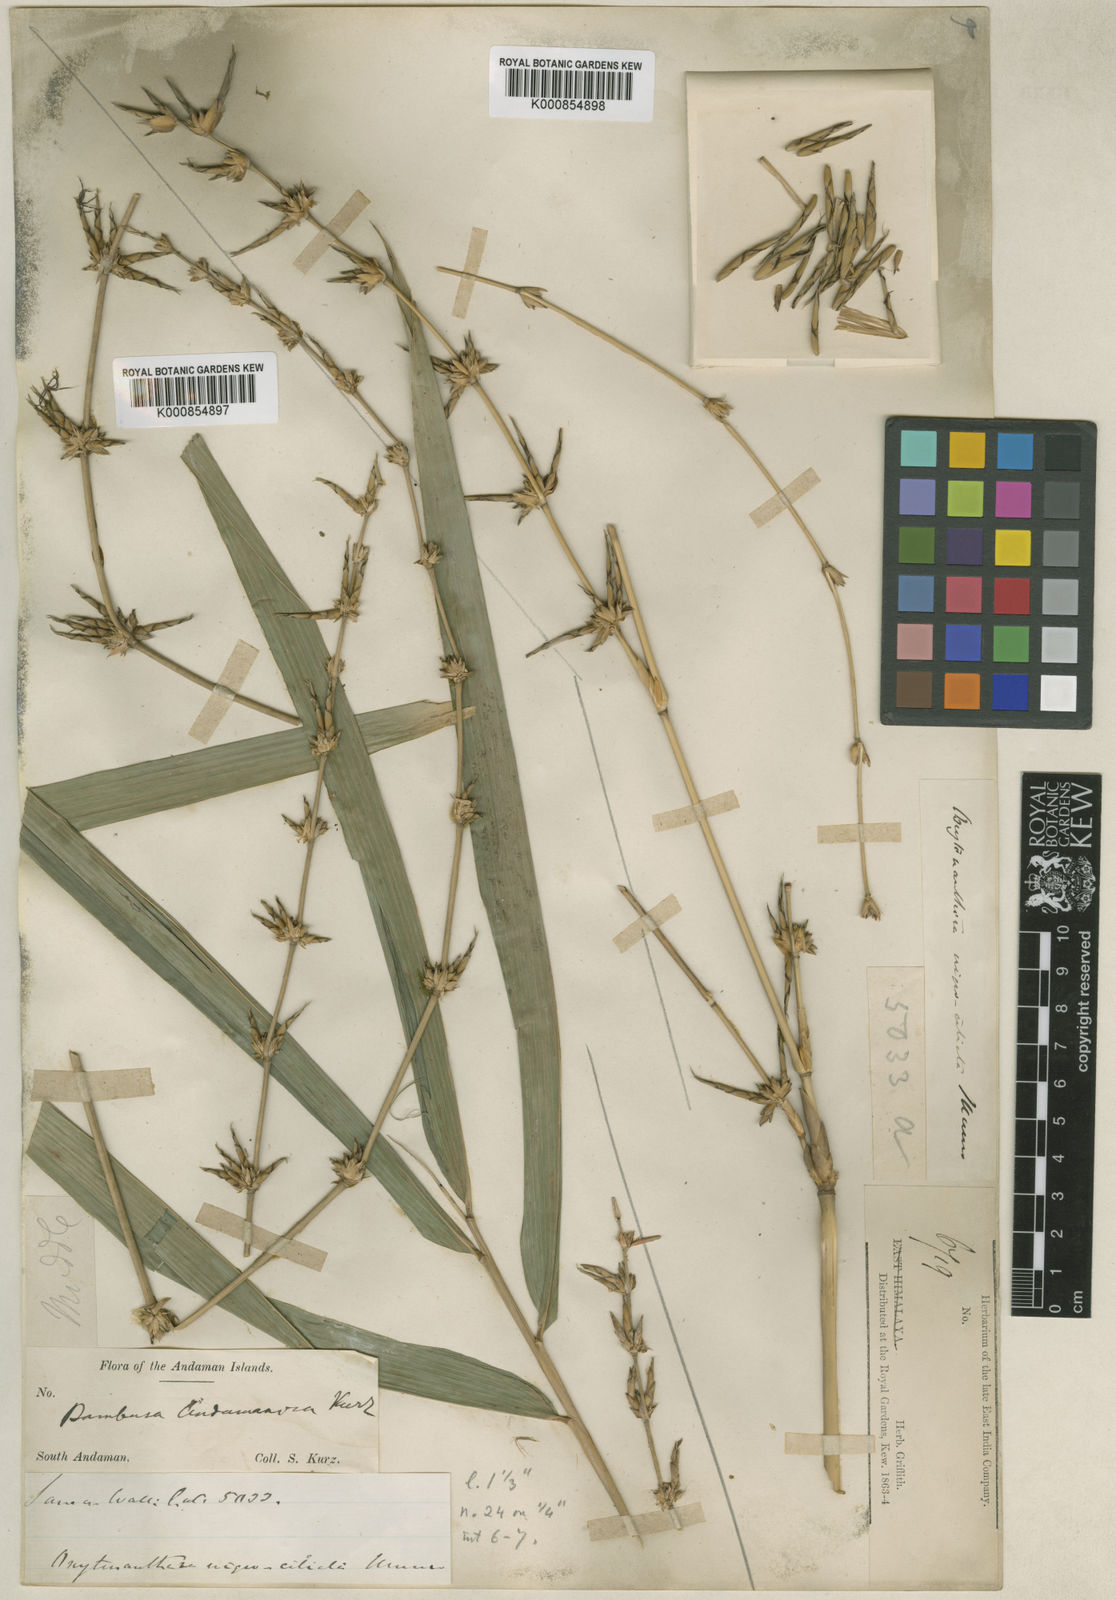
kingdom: Plantae
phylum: Tracheophyta
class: Liliopsida
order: Poales
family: Poaceae
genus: Gigantochloa
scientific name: Gigantochloa nigrociliata
